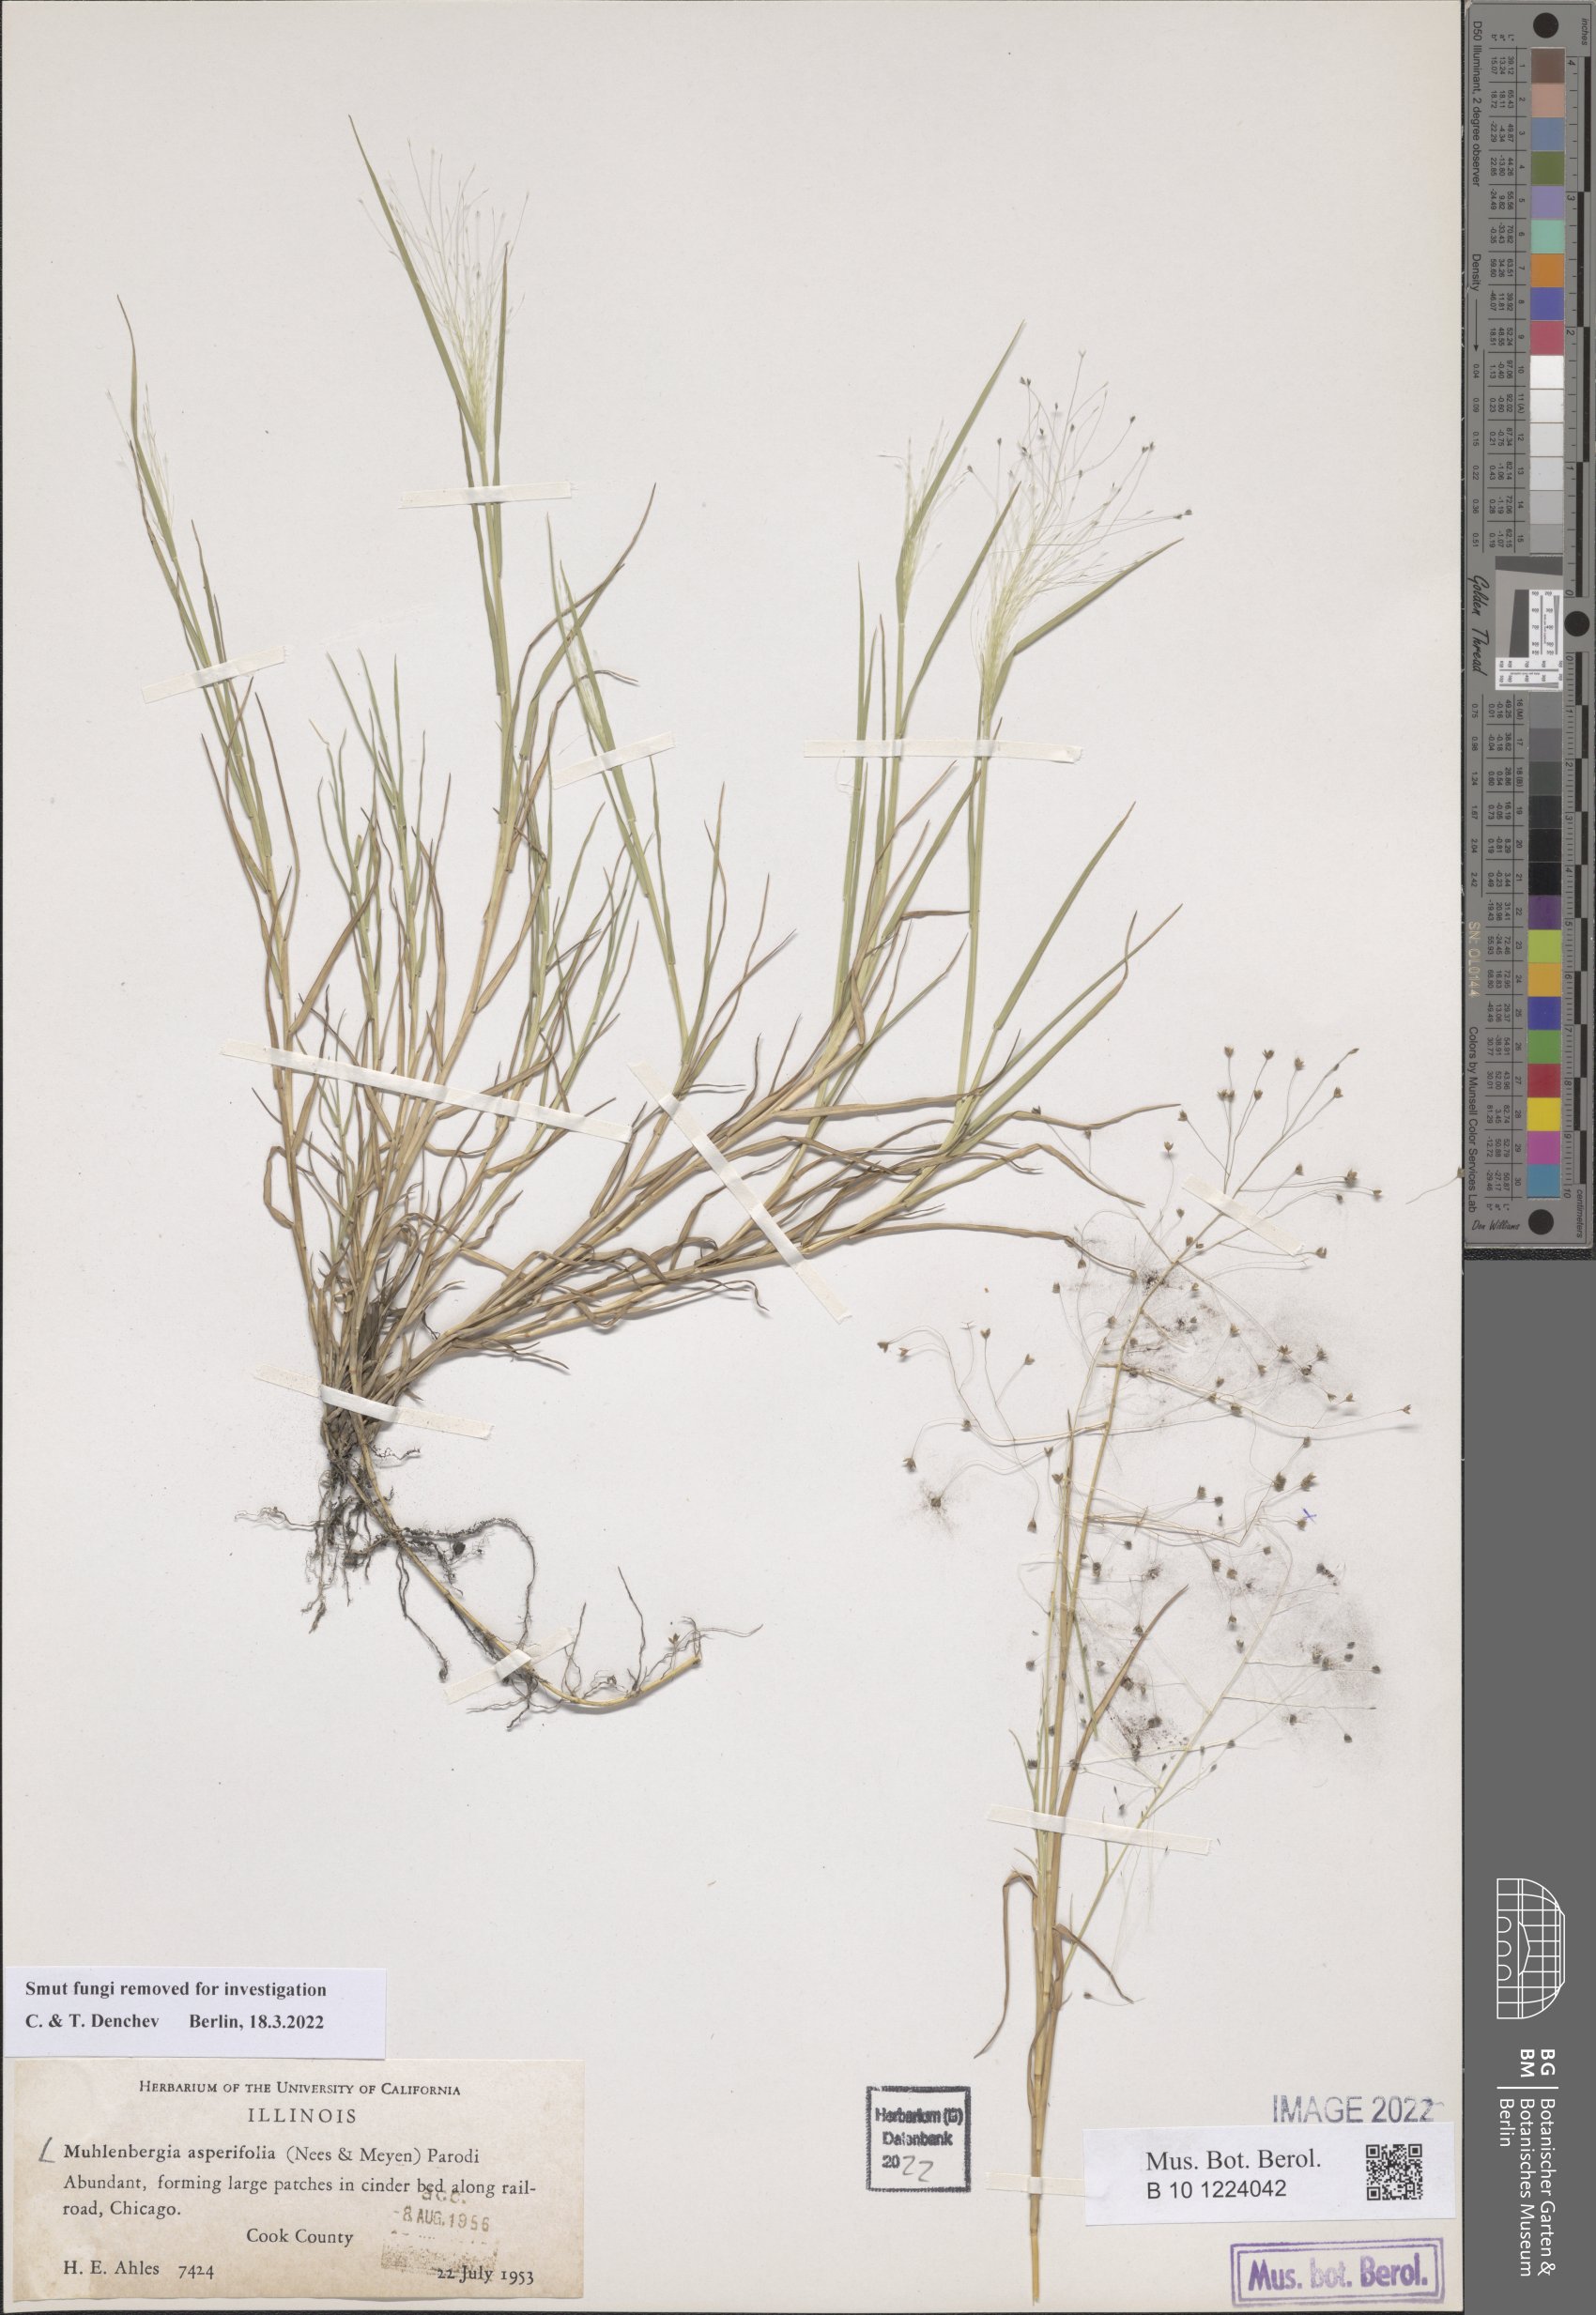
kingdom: Plantae
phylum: Tracheophyta
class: Liliopsida
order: Poales
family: Poaceae
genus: Muhlenbergia
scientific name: Muhlenbergia asperifolia
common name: Alkali muhly
